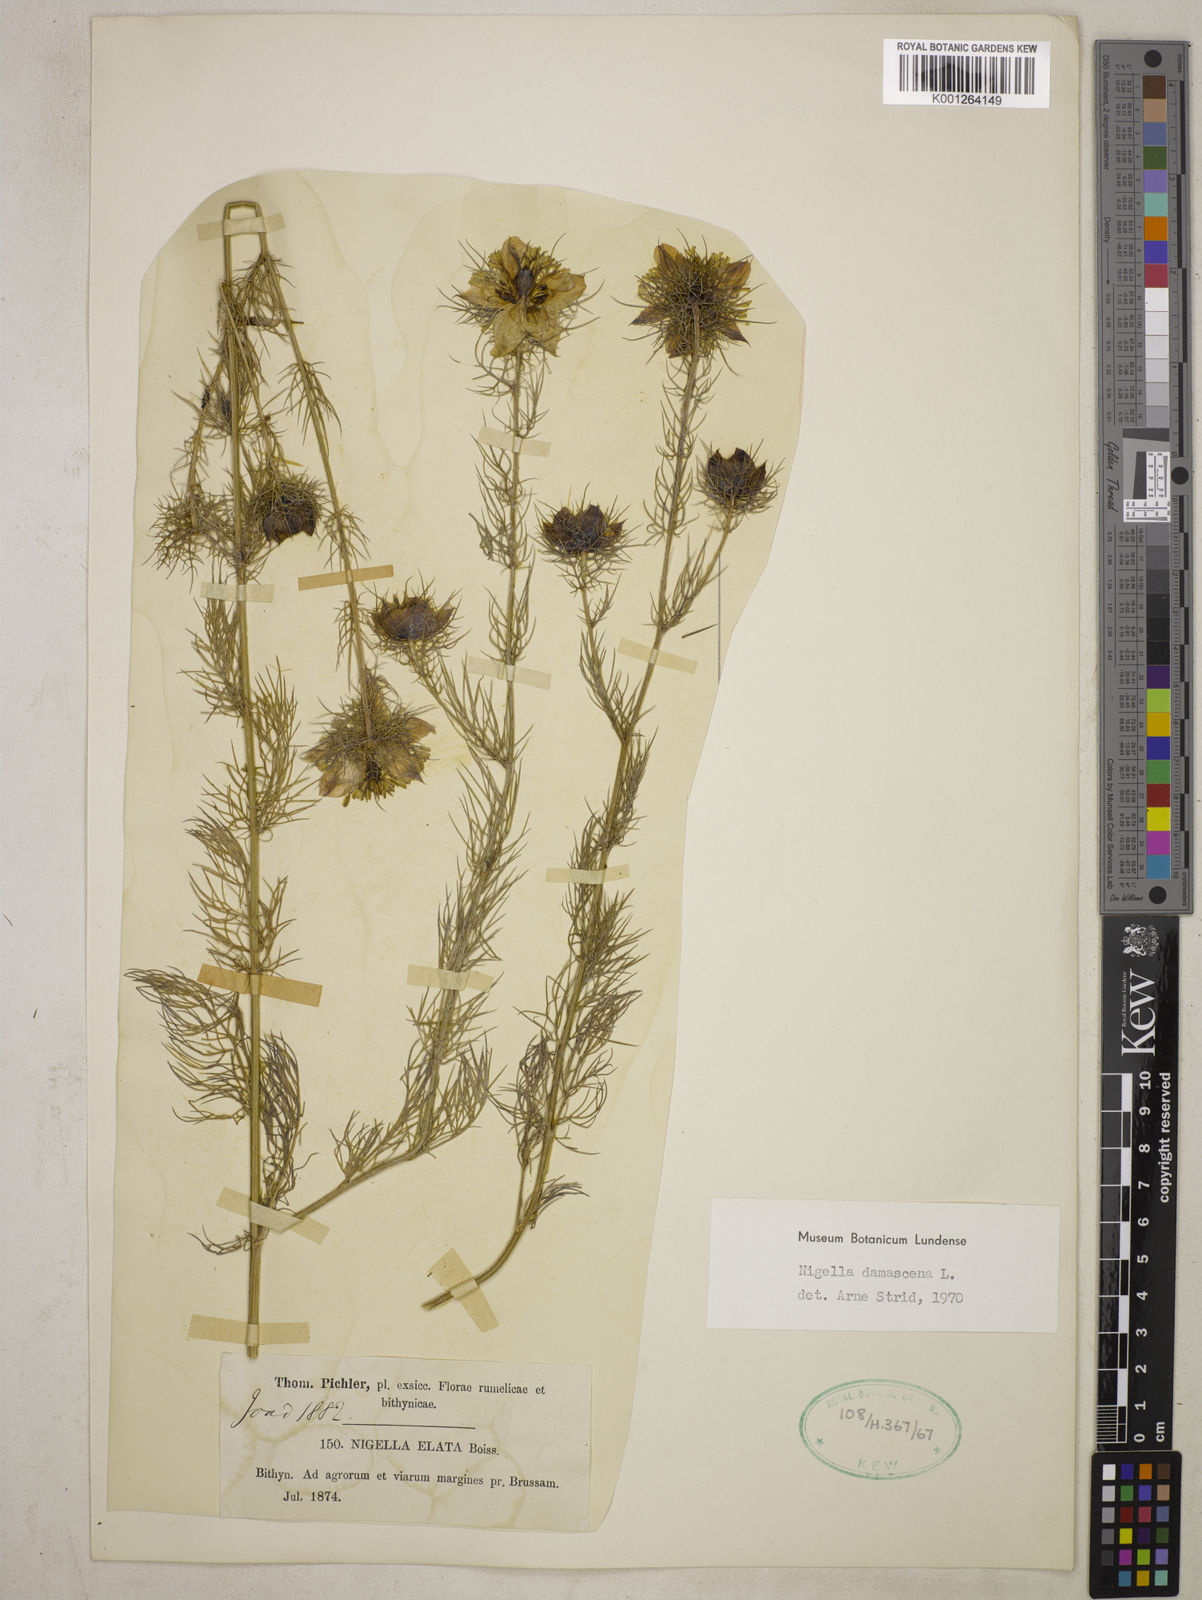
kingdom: Plantae
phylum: Tracheophyta
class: Magnoliopsida
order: Ranunculales
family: Ranunculaceae
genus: Nigella
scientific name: Nigella damascena
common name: Love-in-a-mist
